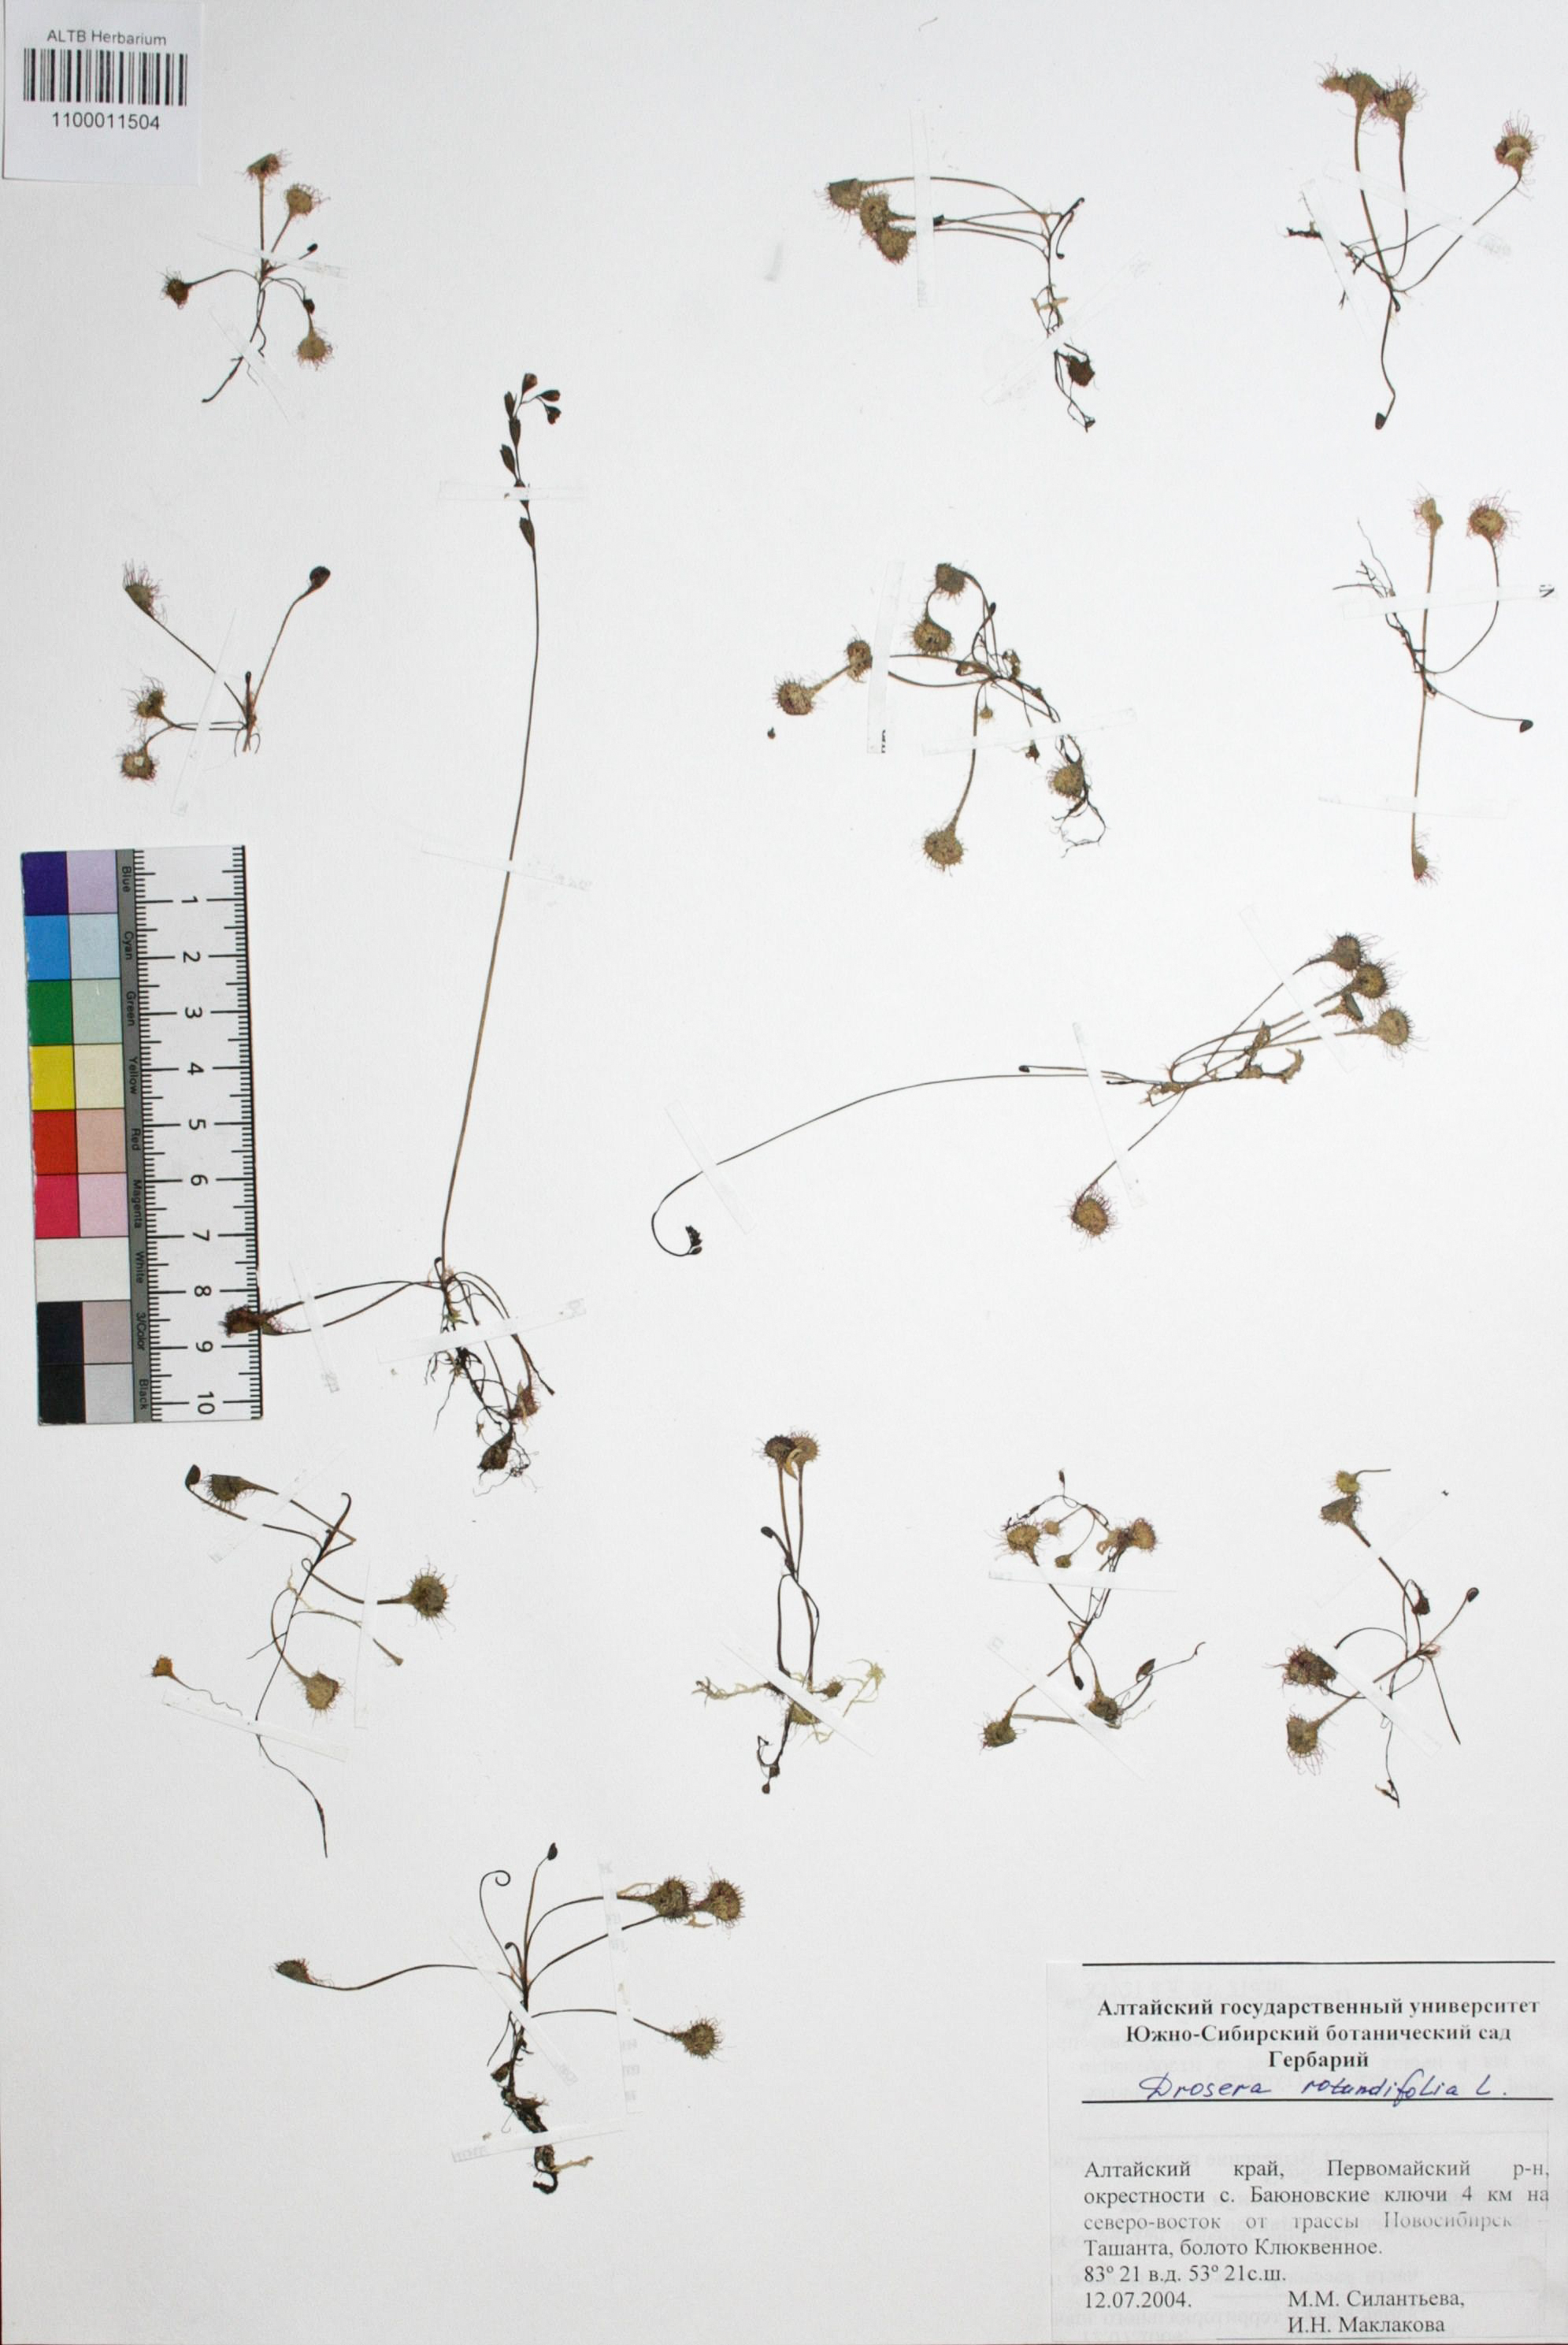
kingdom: Plantae
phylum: Tracheophyta
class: Magnoliopsida
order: Caryophyllales
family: Droseraceae
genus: Drosera
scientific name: Drosera rotundifolia
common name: Round-leaved sundew
